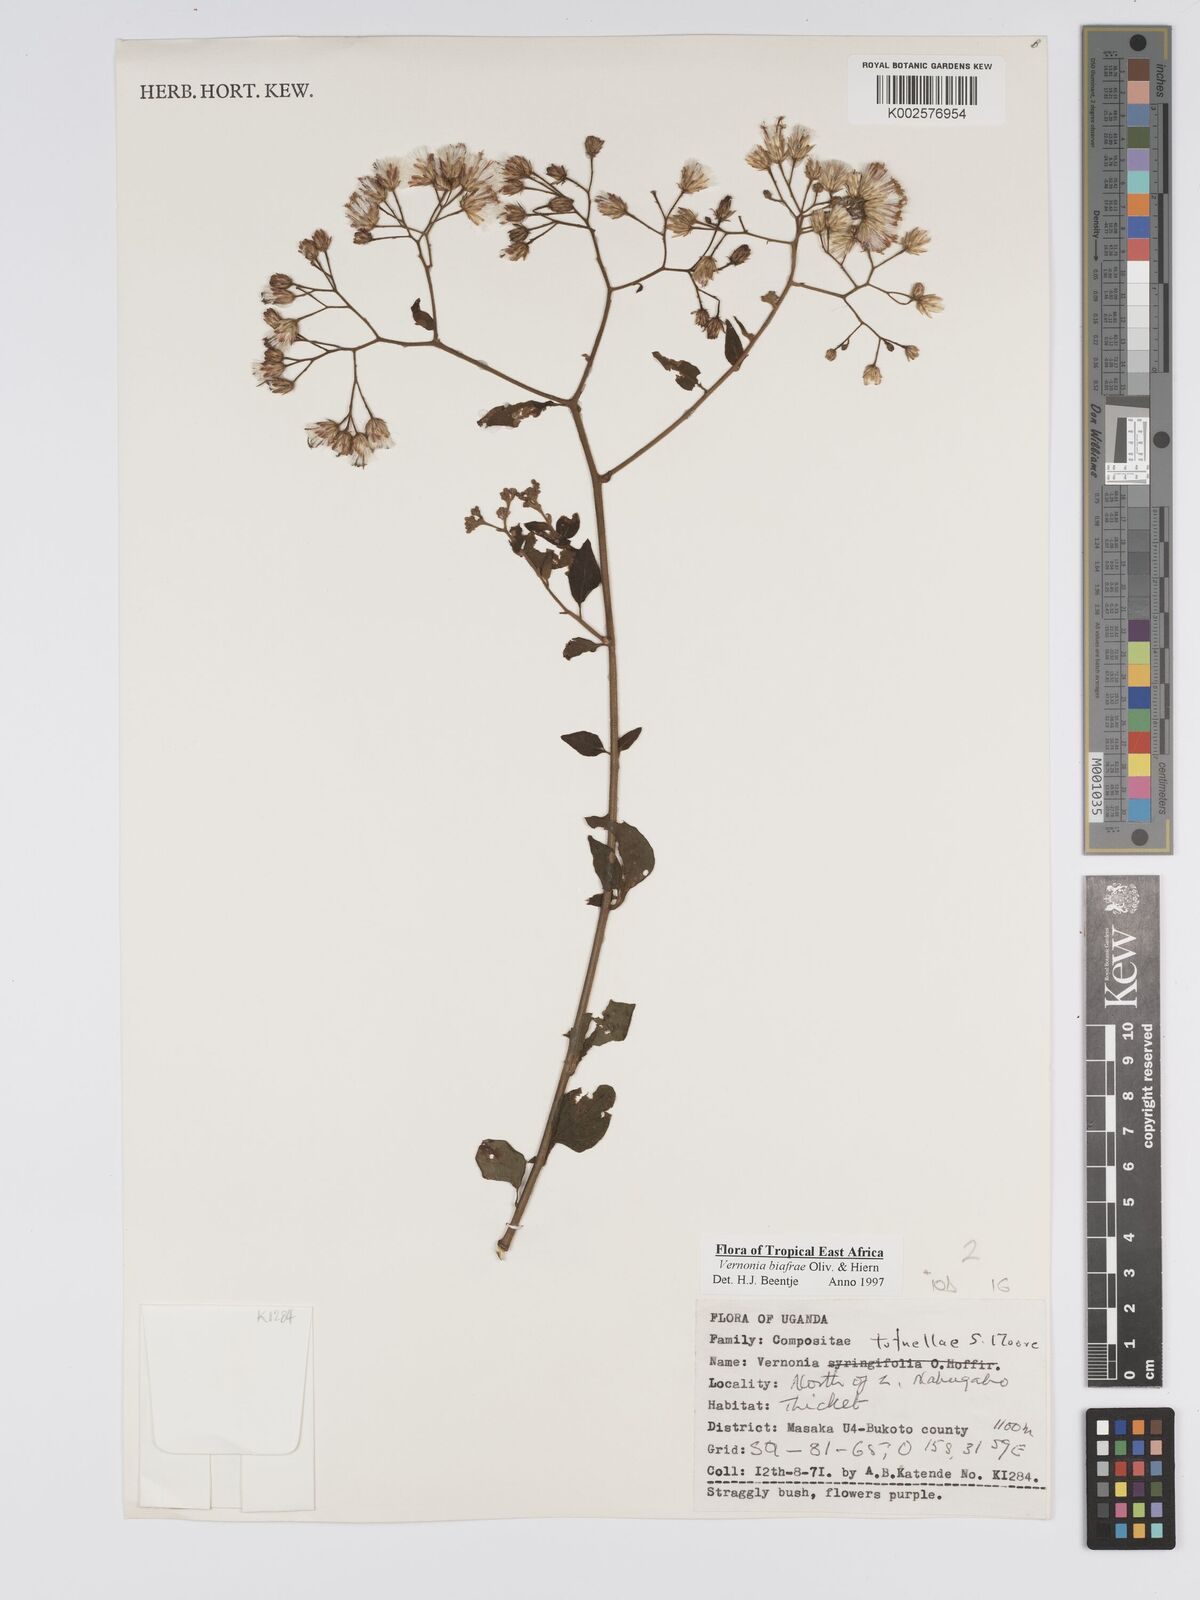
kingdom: Plantae
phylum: Tracheophyta
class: Magnoliopsida
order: Asterales
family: Asteraceae
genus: Distephanus
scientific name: Distephanus biafrae
